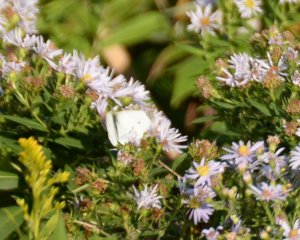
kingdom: Animalia
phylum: Arthropoda
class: Insecta
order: Lepidoptera
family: Pieridae
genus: Pieris
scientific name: Pieris rapae
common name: Cabbage White
